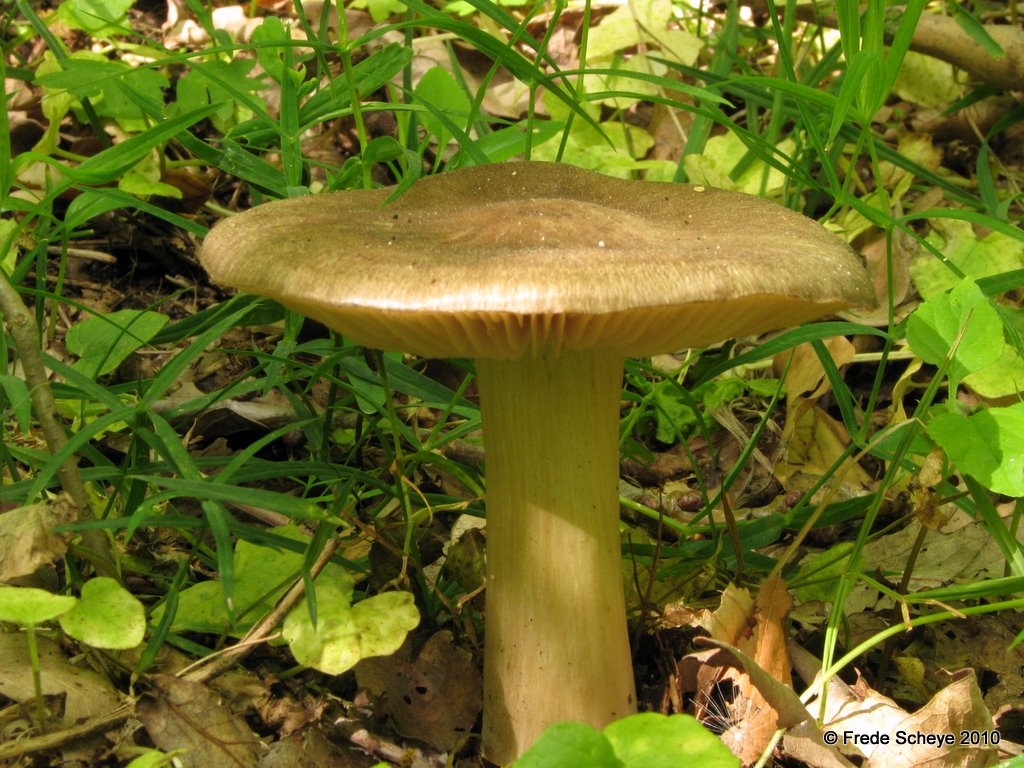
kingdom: Fungi
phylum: Basidiomycota
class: Agaricomycetes
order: Agaricales
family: Tricholomataceae
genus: Megacollybia
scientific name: Megacollybia platyphylla
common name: bredbladet væbnerhat
